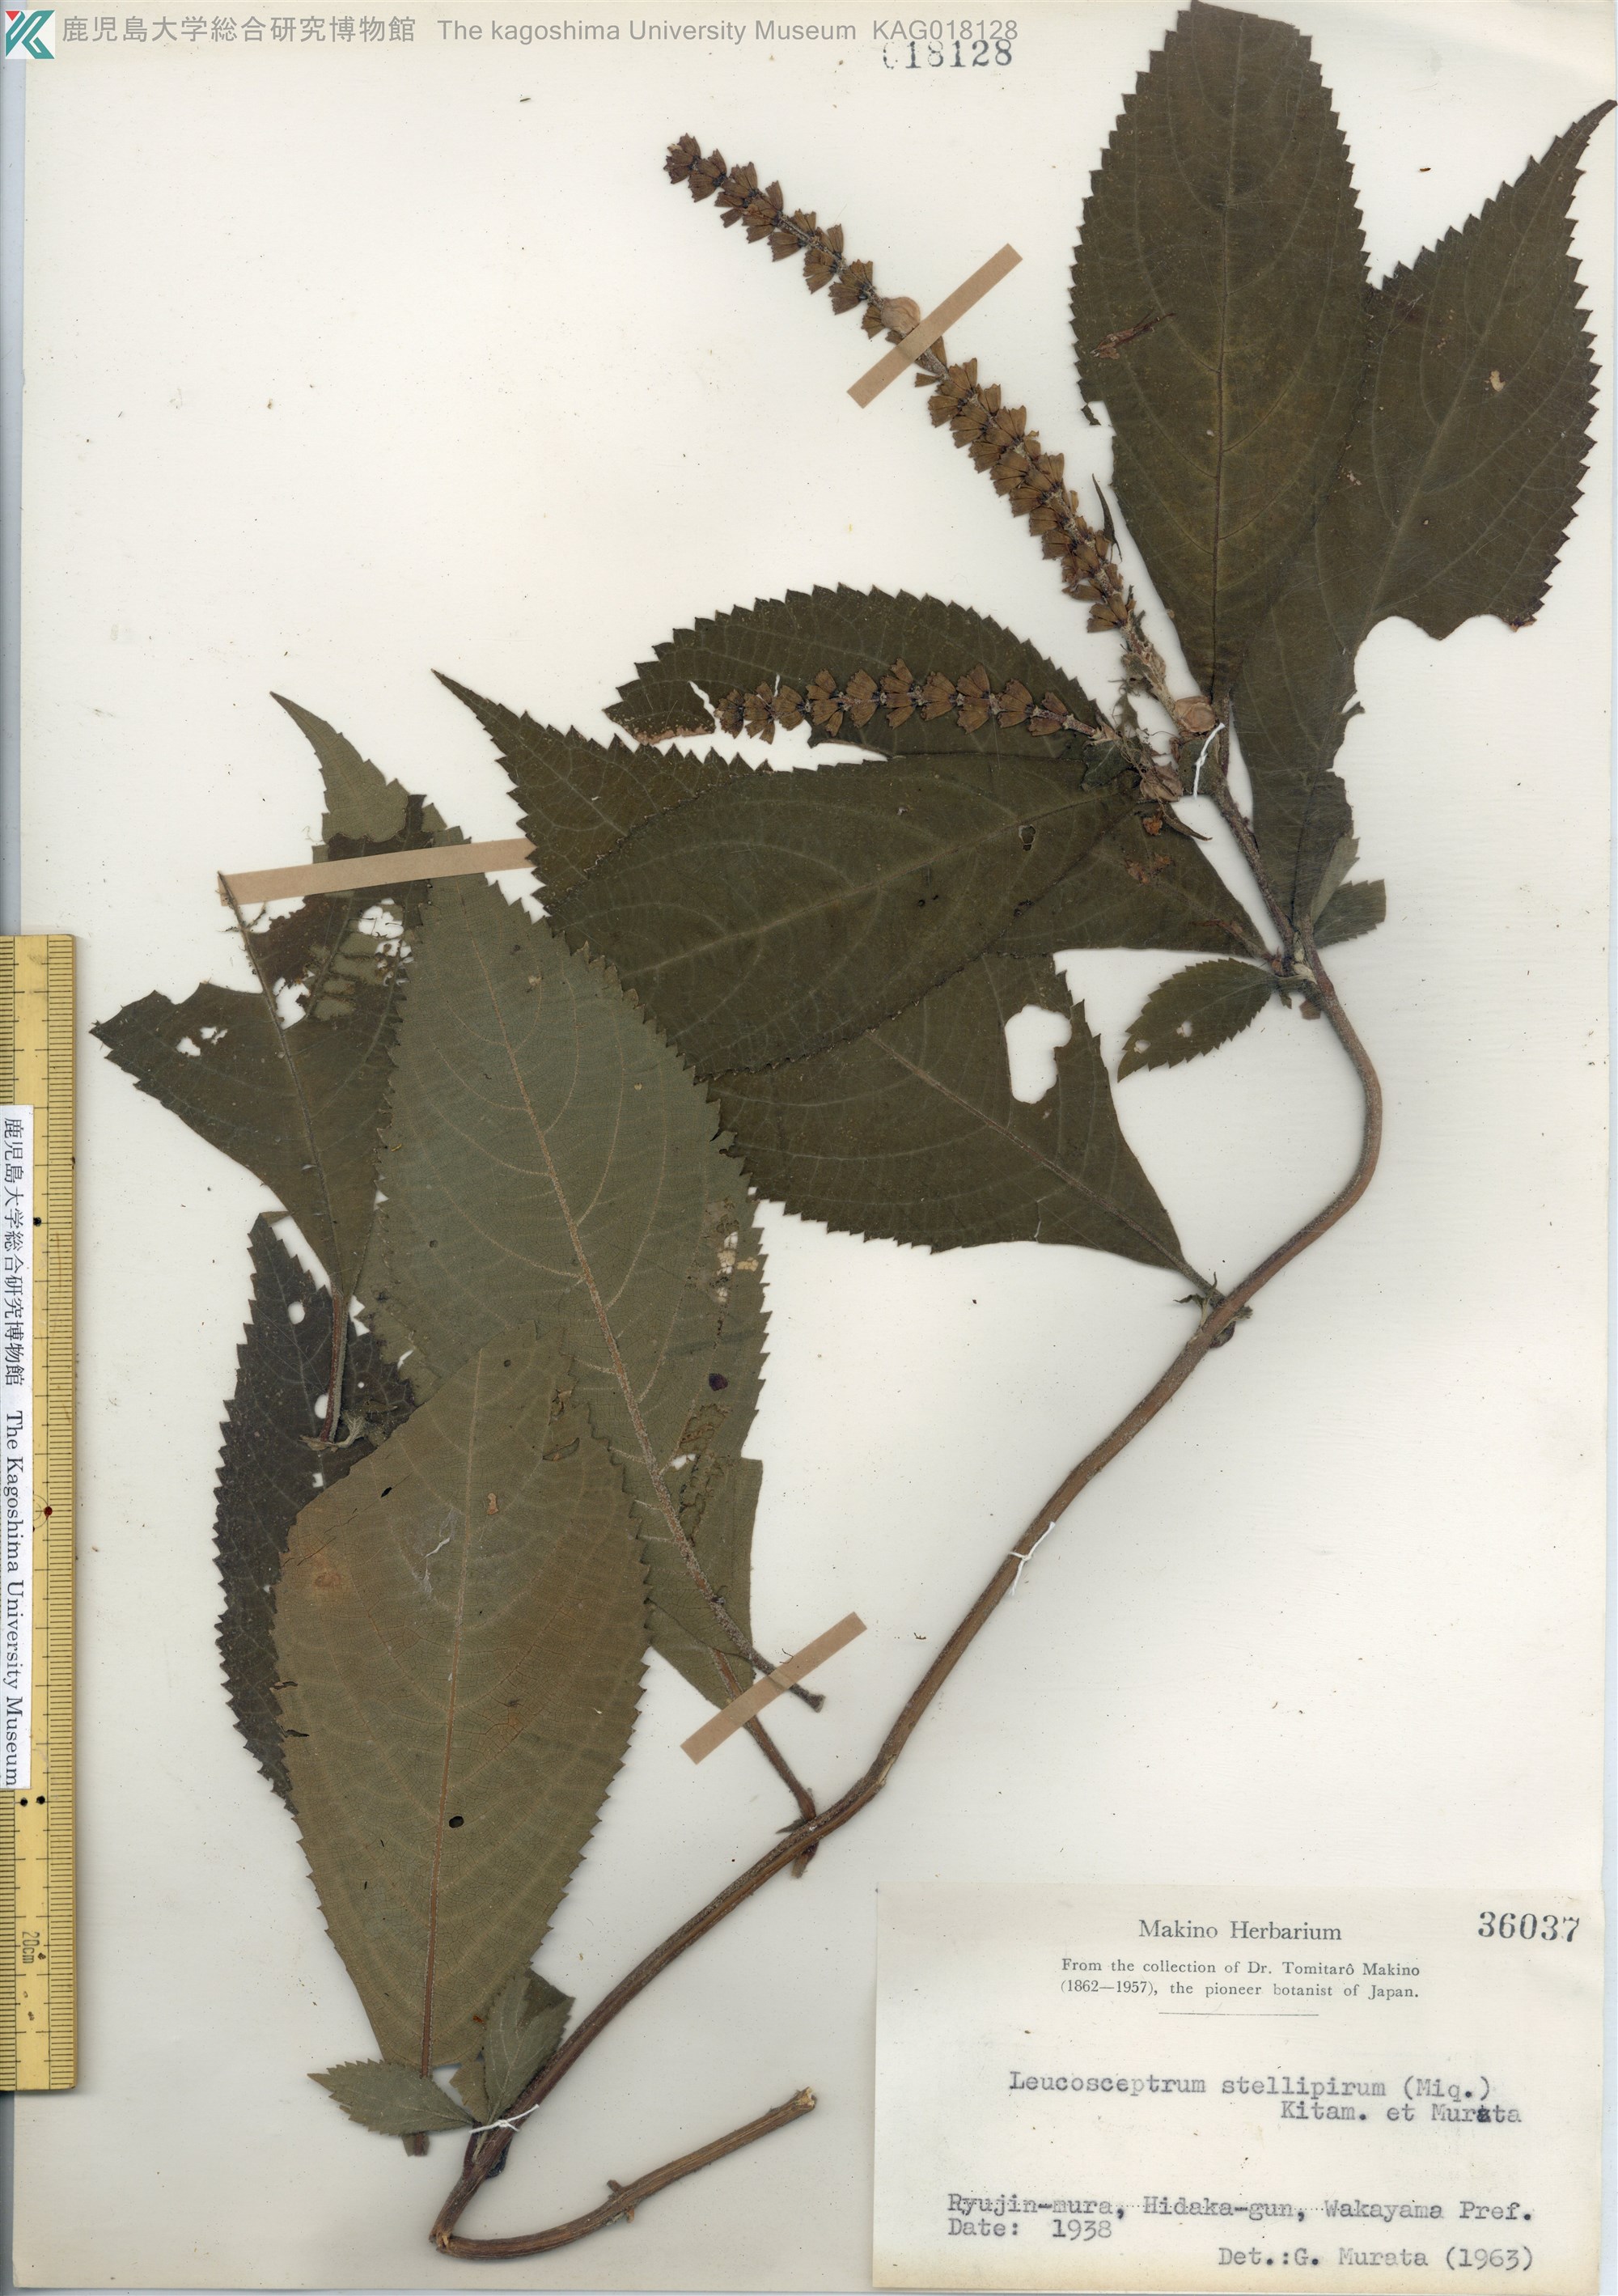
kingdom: Plantae
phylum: Tracheophyta
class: Magnoliopsida
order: Lamiales
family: Lamiaceae
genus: Comanthosphace
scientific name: Comanthosphace japonica
